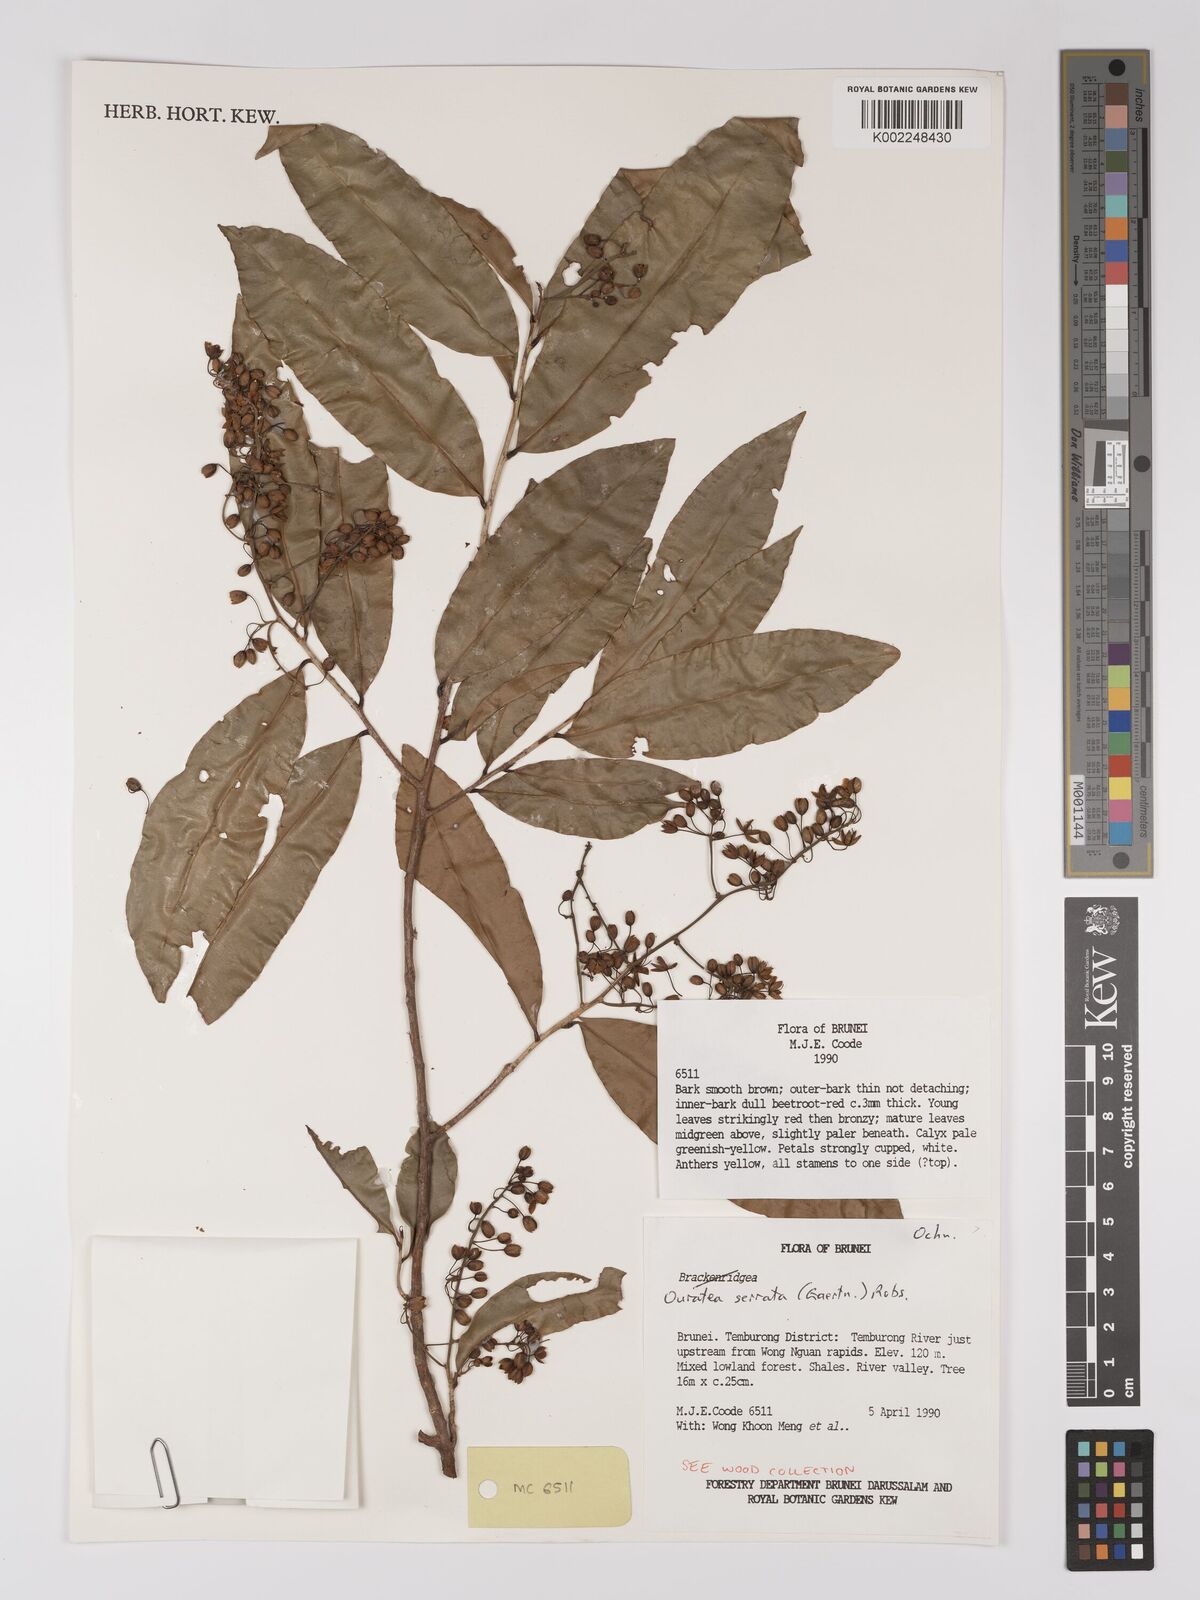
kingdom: Plantae
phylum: Tracheophyta
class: Magnoliopsida
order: Malpighiales
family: Ochnaceae
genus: Gomphia
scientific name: Gomphia serrata
